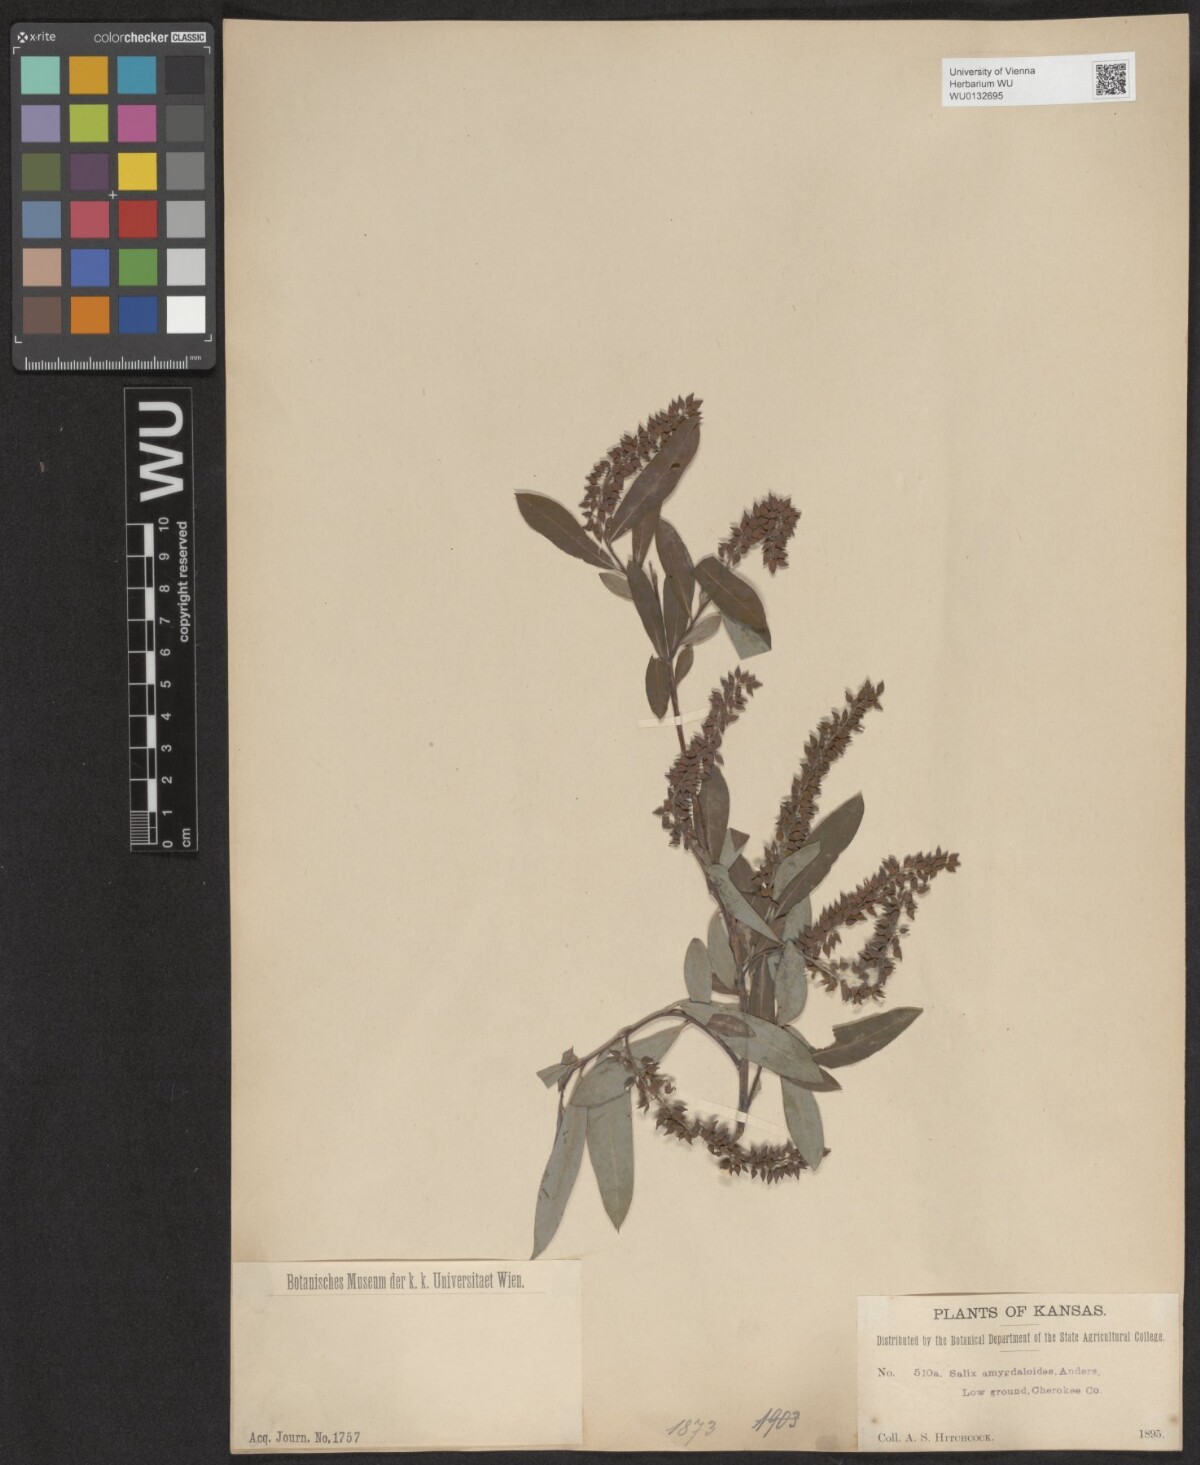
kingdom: Plantae
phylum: Tracheophyta
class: Magnoliopsida
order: Malpighiales
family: Salicaceae
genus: Salix
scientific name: Salix amygdaloides
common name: Peach leaf willow
